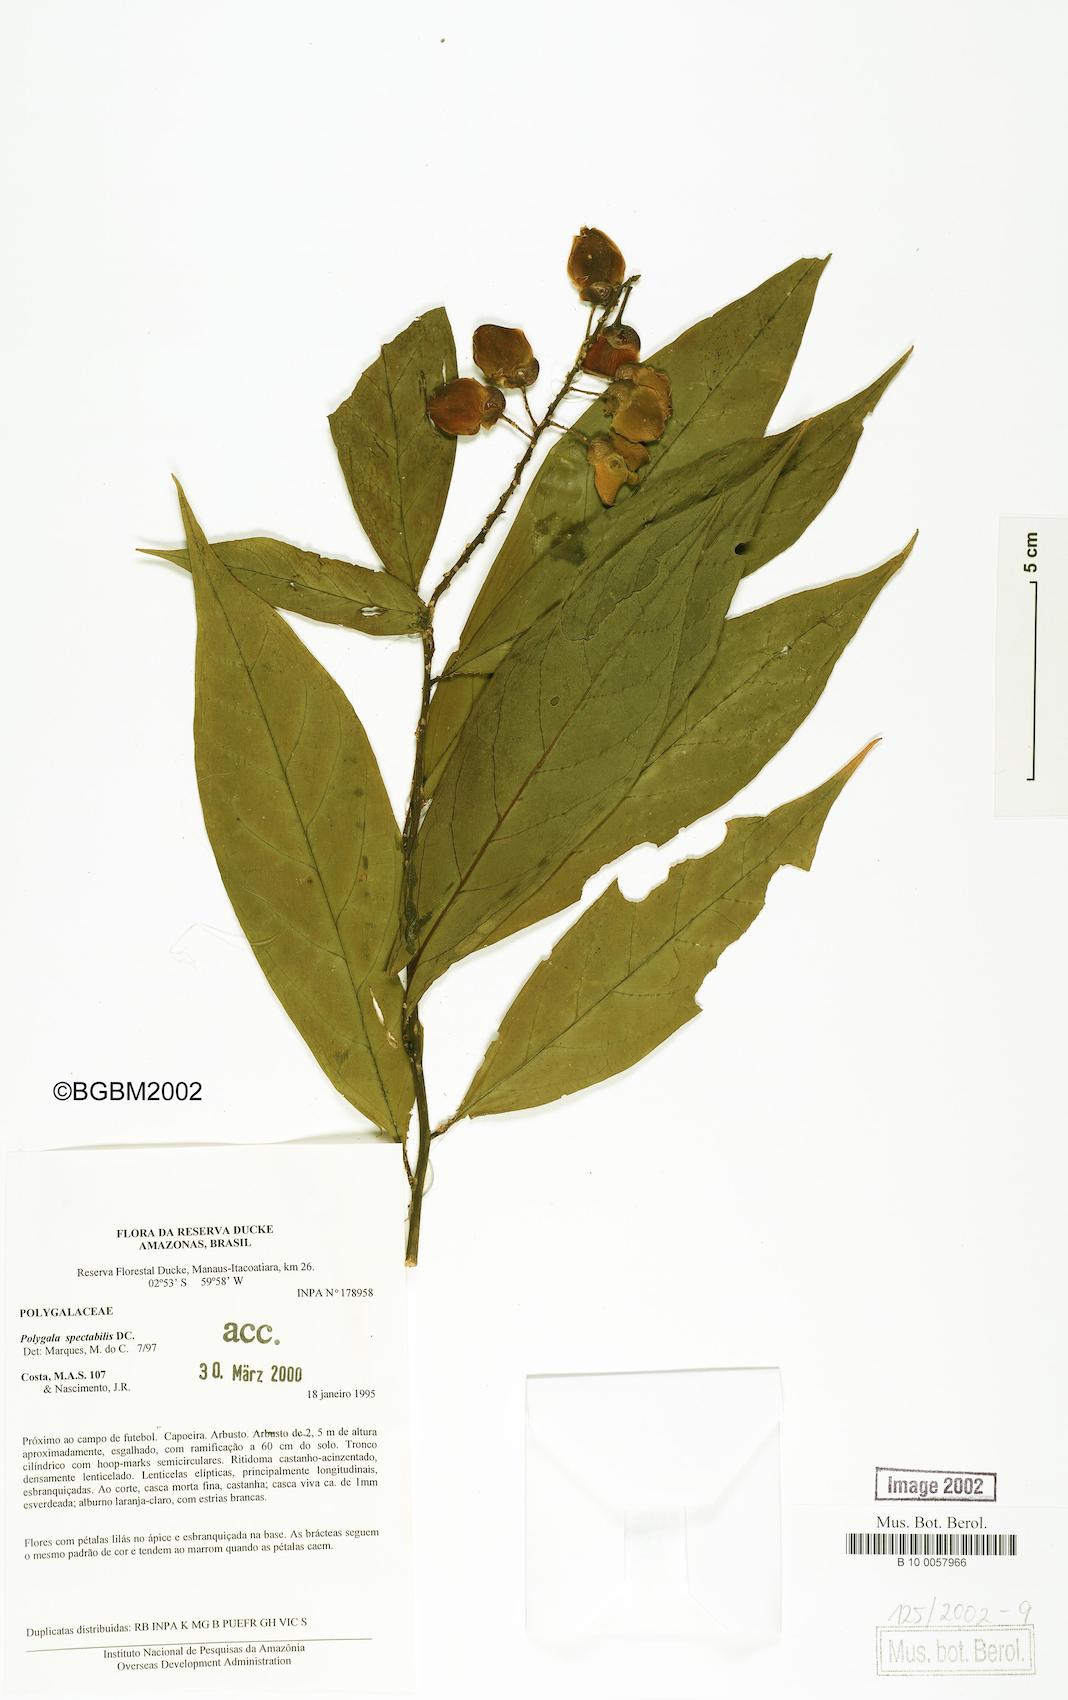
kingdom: Plantae
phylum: Tracheophyta
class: Magnoliopsida
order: Fabales
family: Polygalaceae
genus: Caamembeca
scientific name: Caamembeca spectabilis
